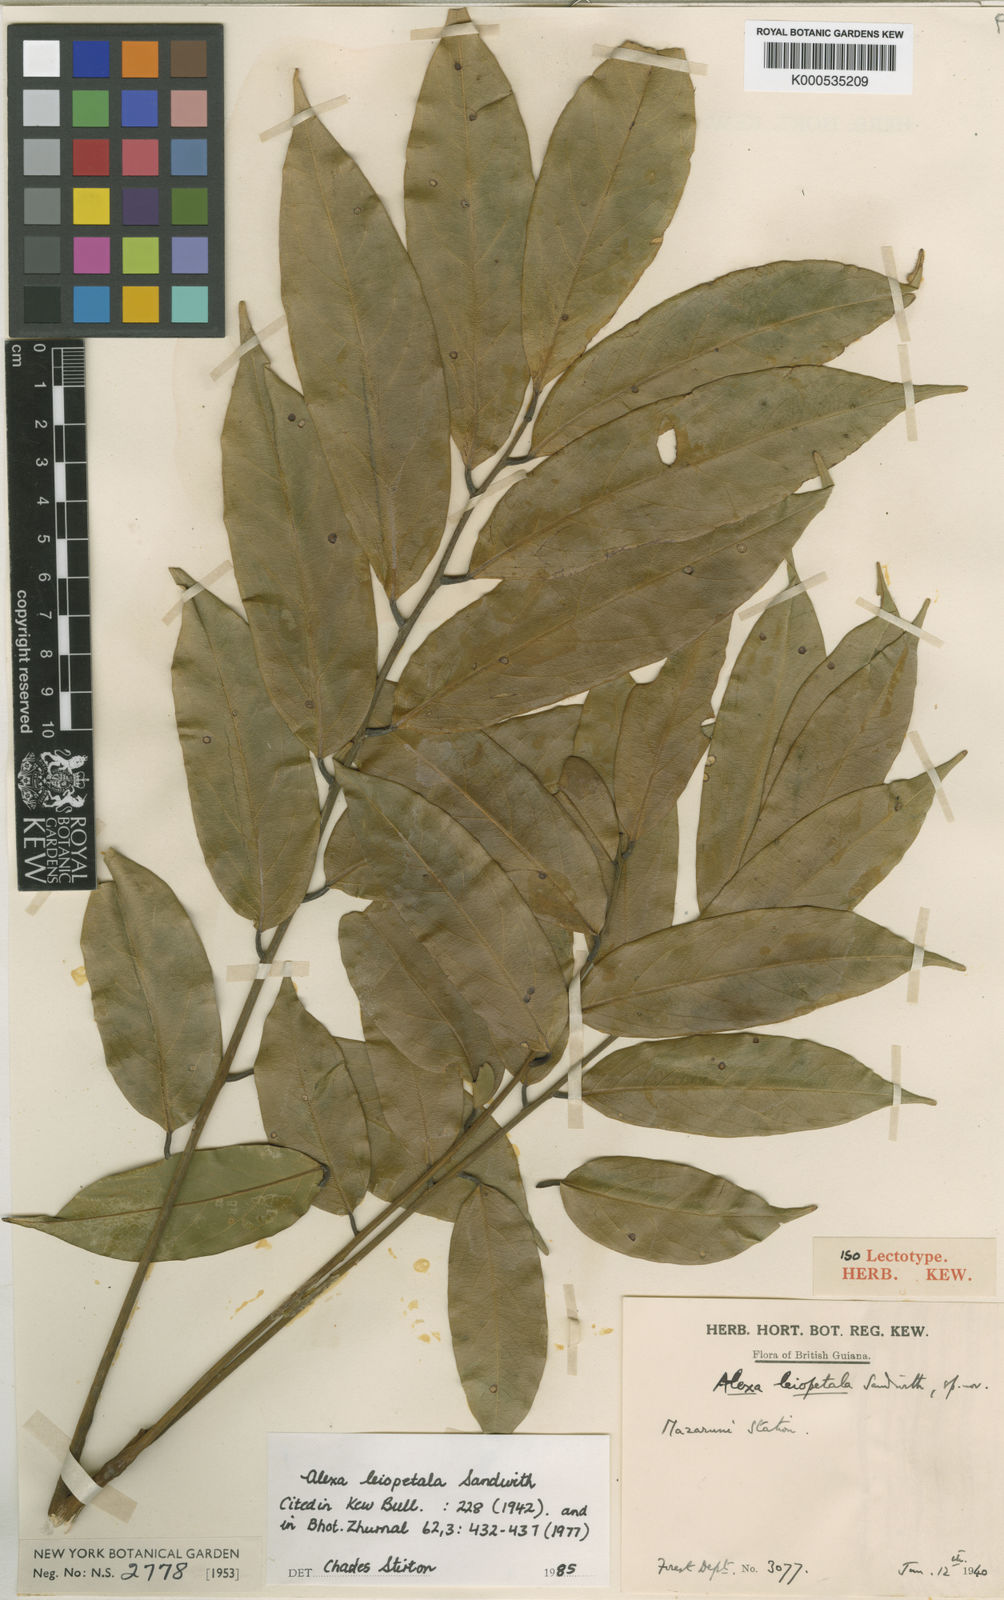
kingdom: Plantae
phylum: Tracheophyta
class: Magnoliopsida
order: Fabales
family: Fabaceae
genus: Alexa
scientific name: Alexa leiopetala
